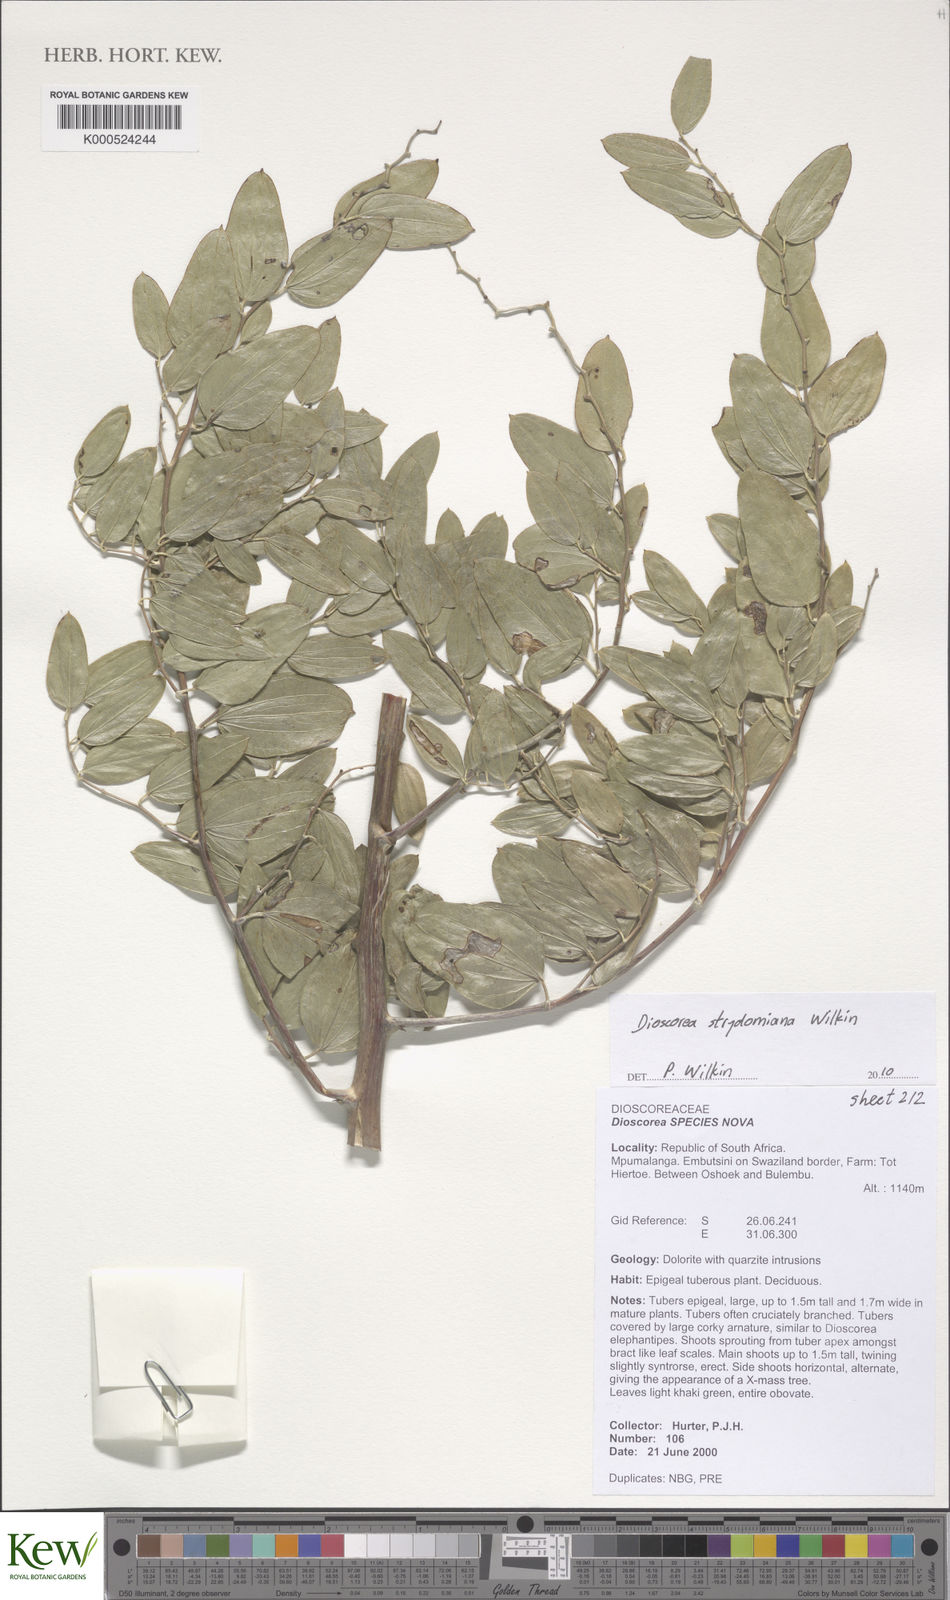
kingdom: Plantae
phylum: Tracheophyta
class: Liliopsida
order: Dioscoreales
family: Dioscoreaceae
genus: Dioscorea
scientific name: Dioscorea strydomiana
